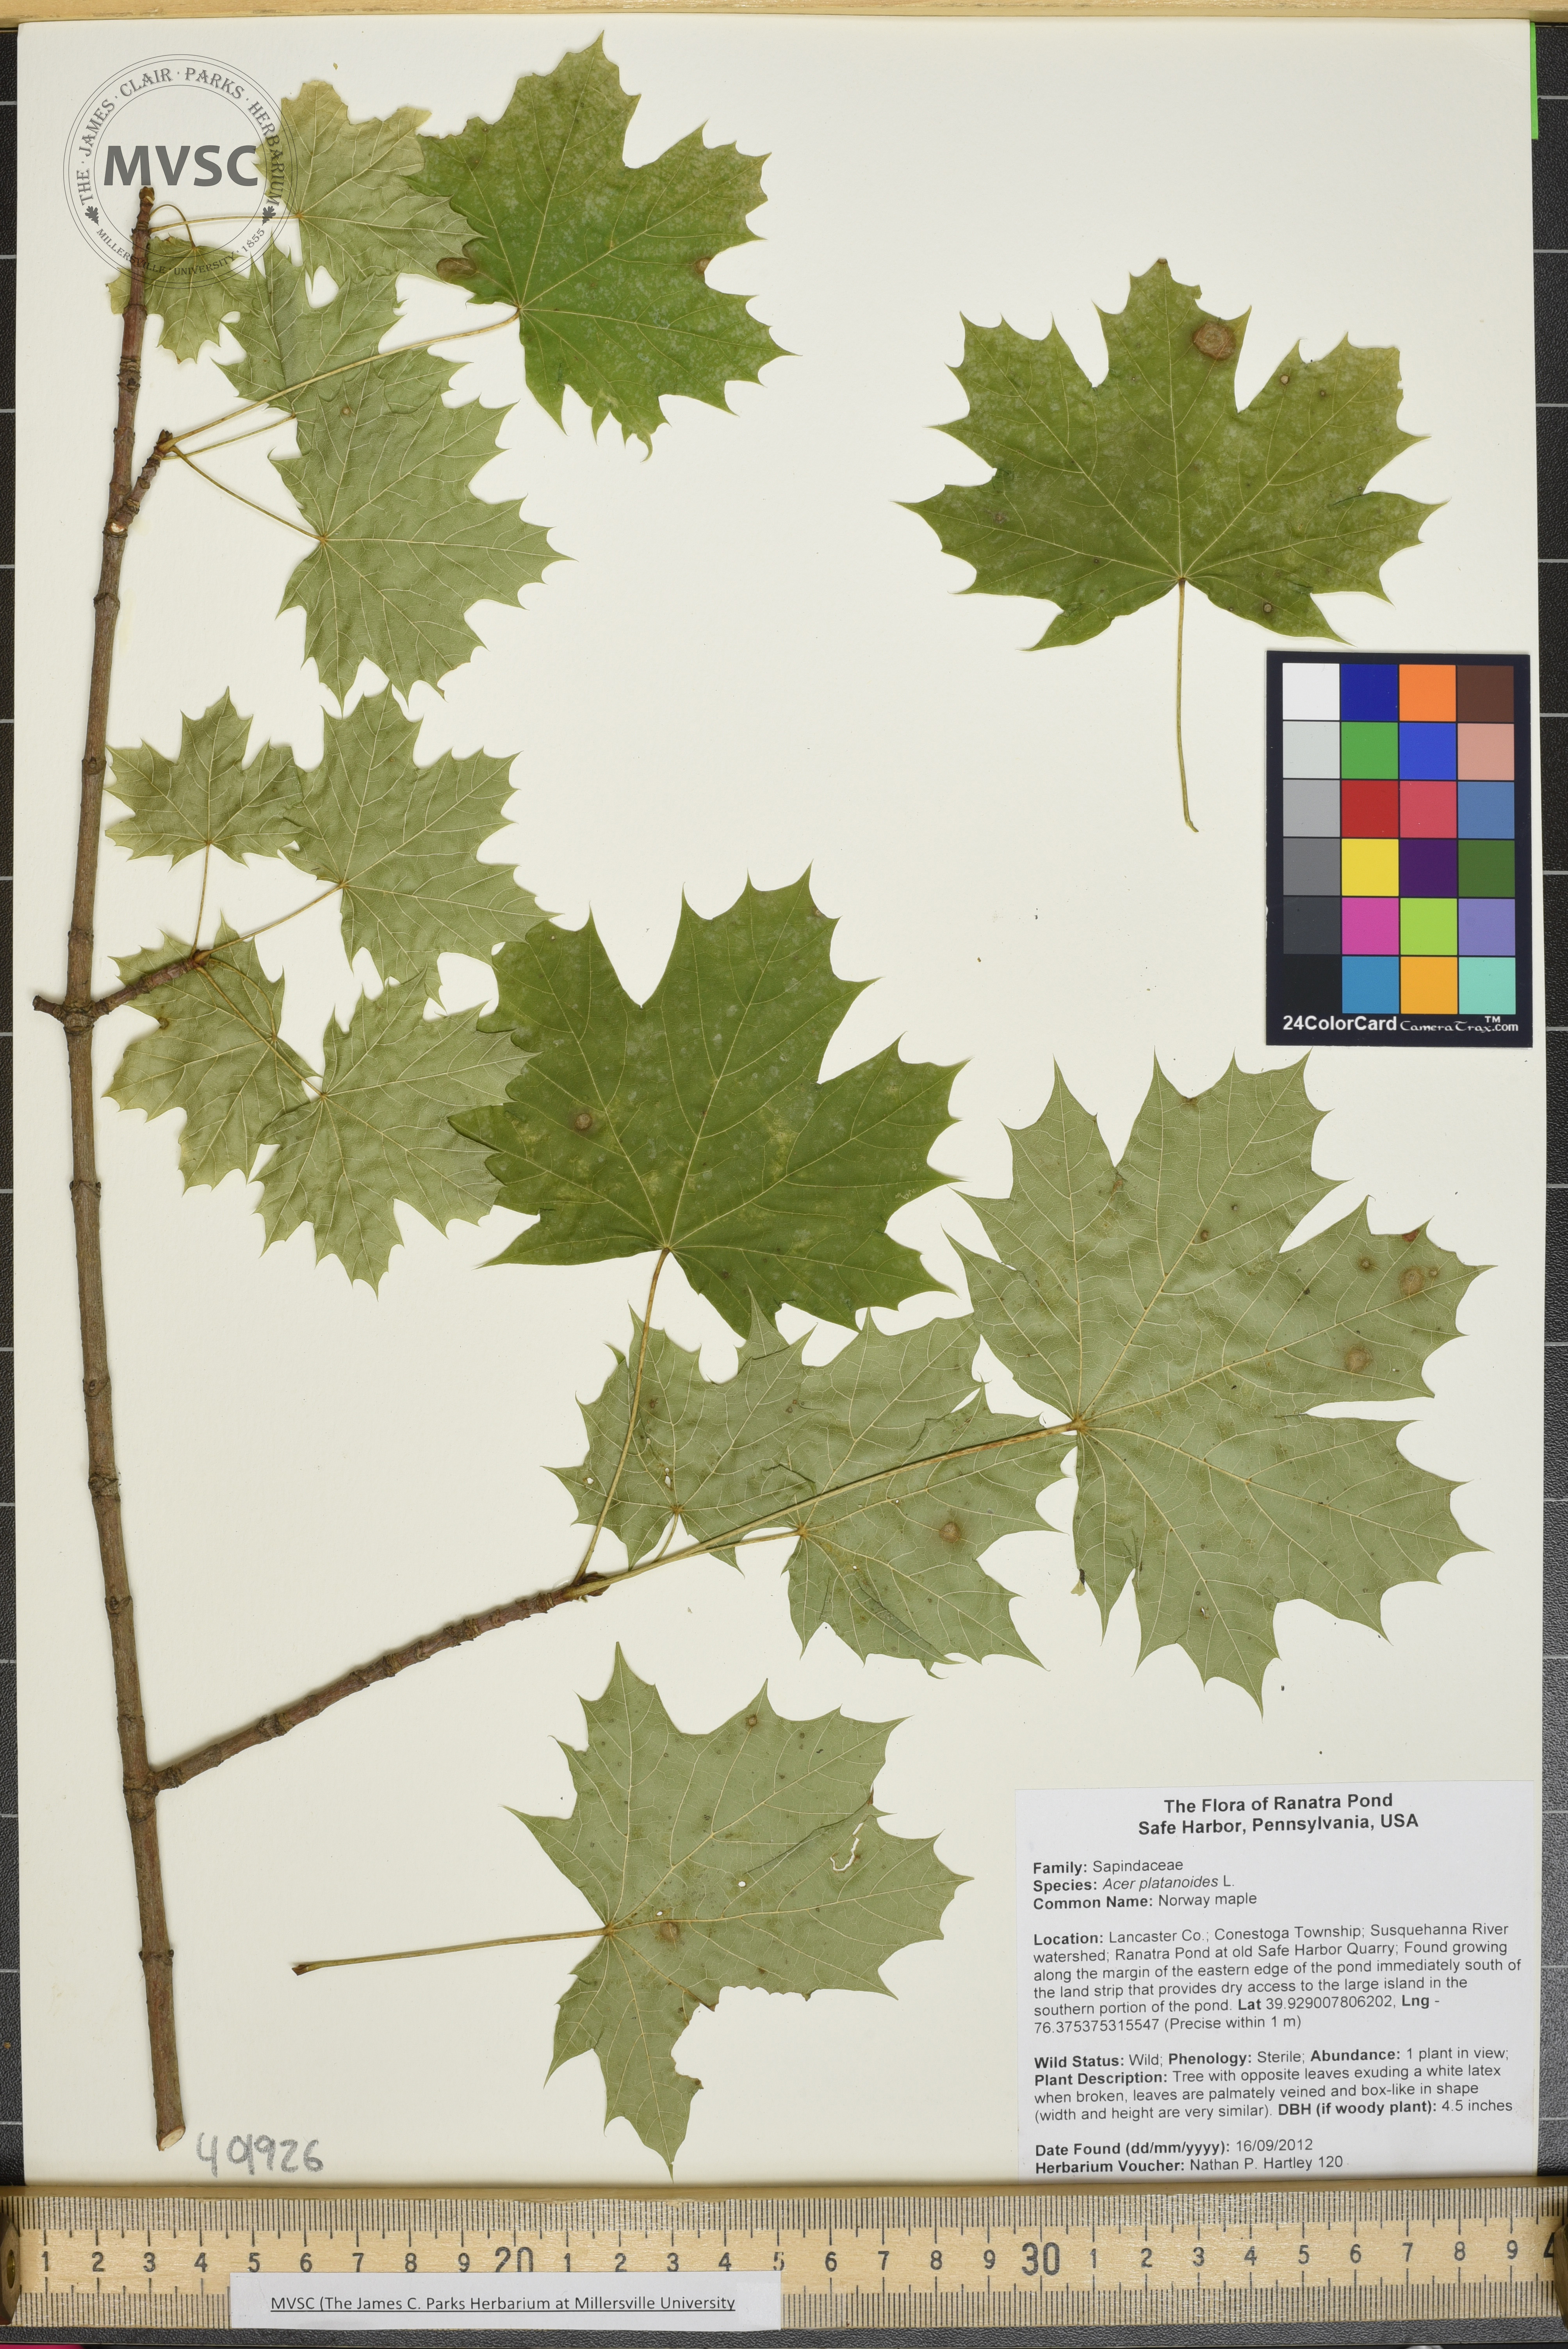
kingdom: Plantae
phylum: Tracheophyta
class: Magnoliopsida
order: Sapindales
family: Sapindaceae
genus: Acer
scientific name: Acer platanoides
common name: Norway maple
